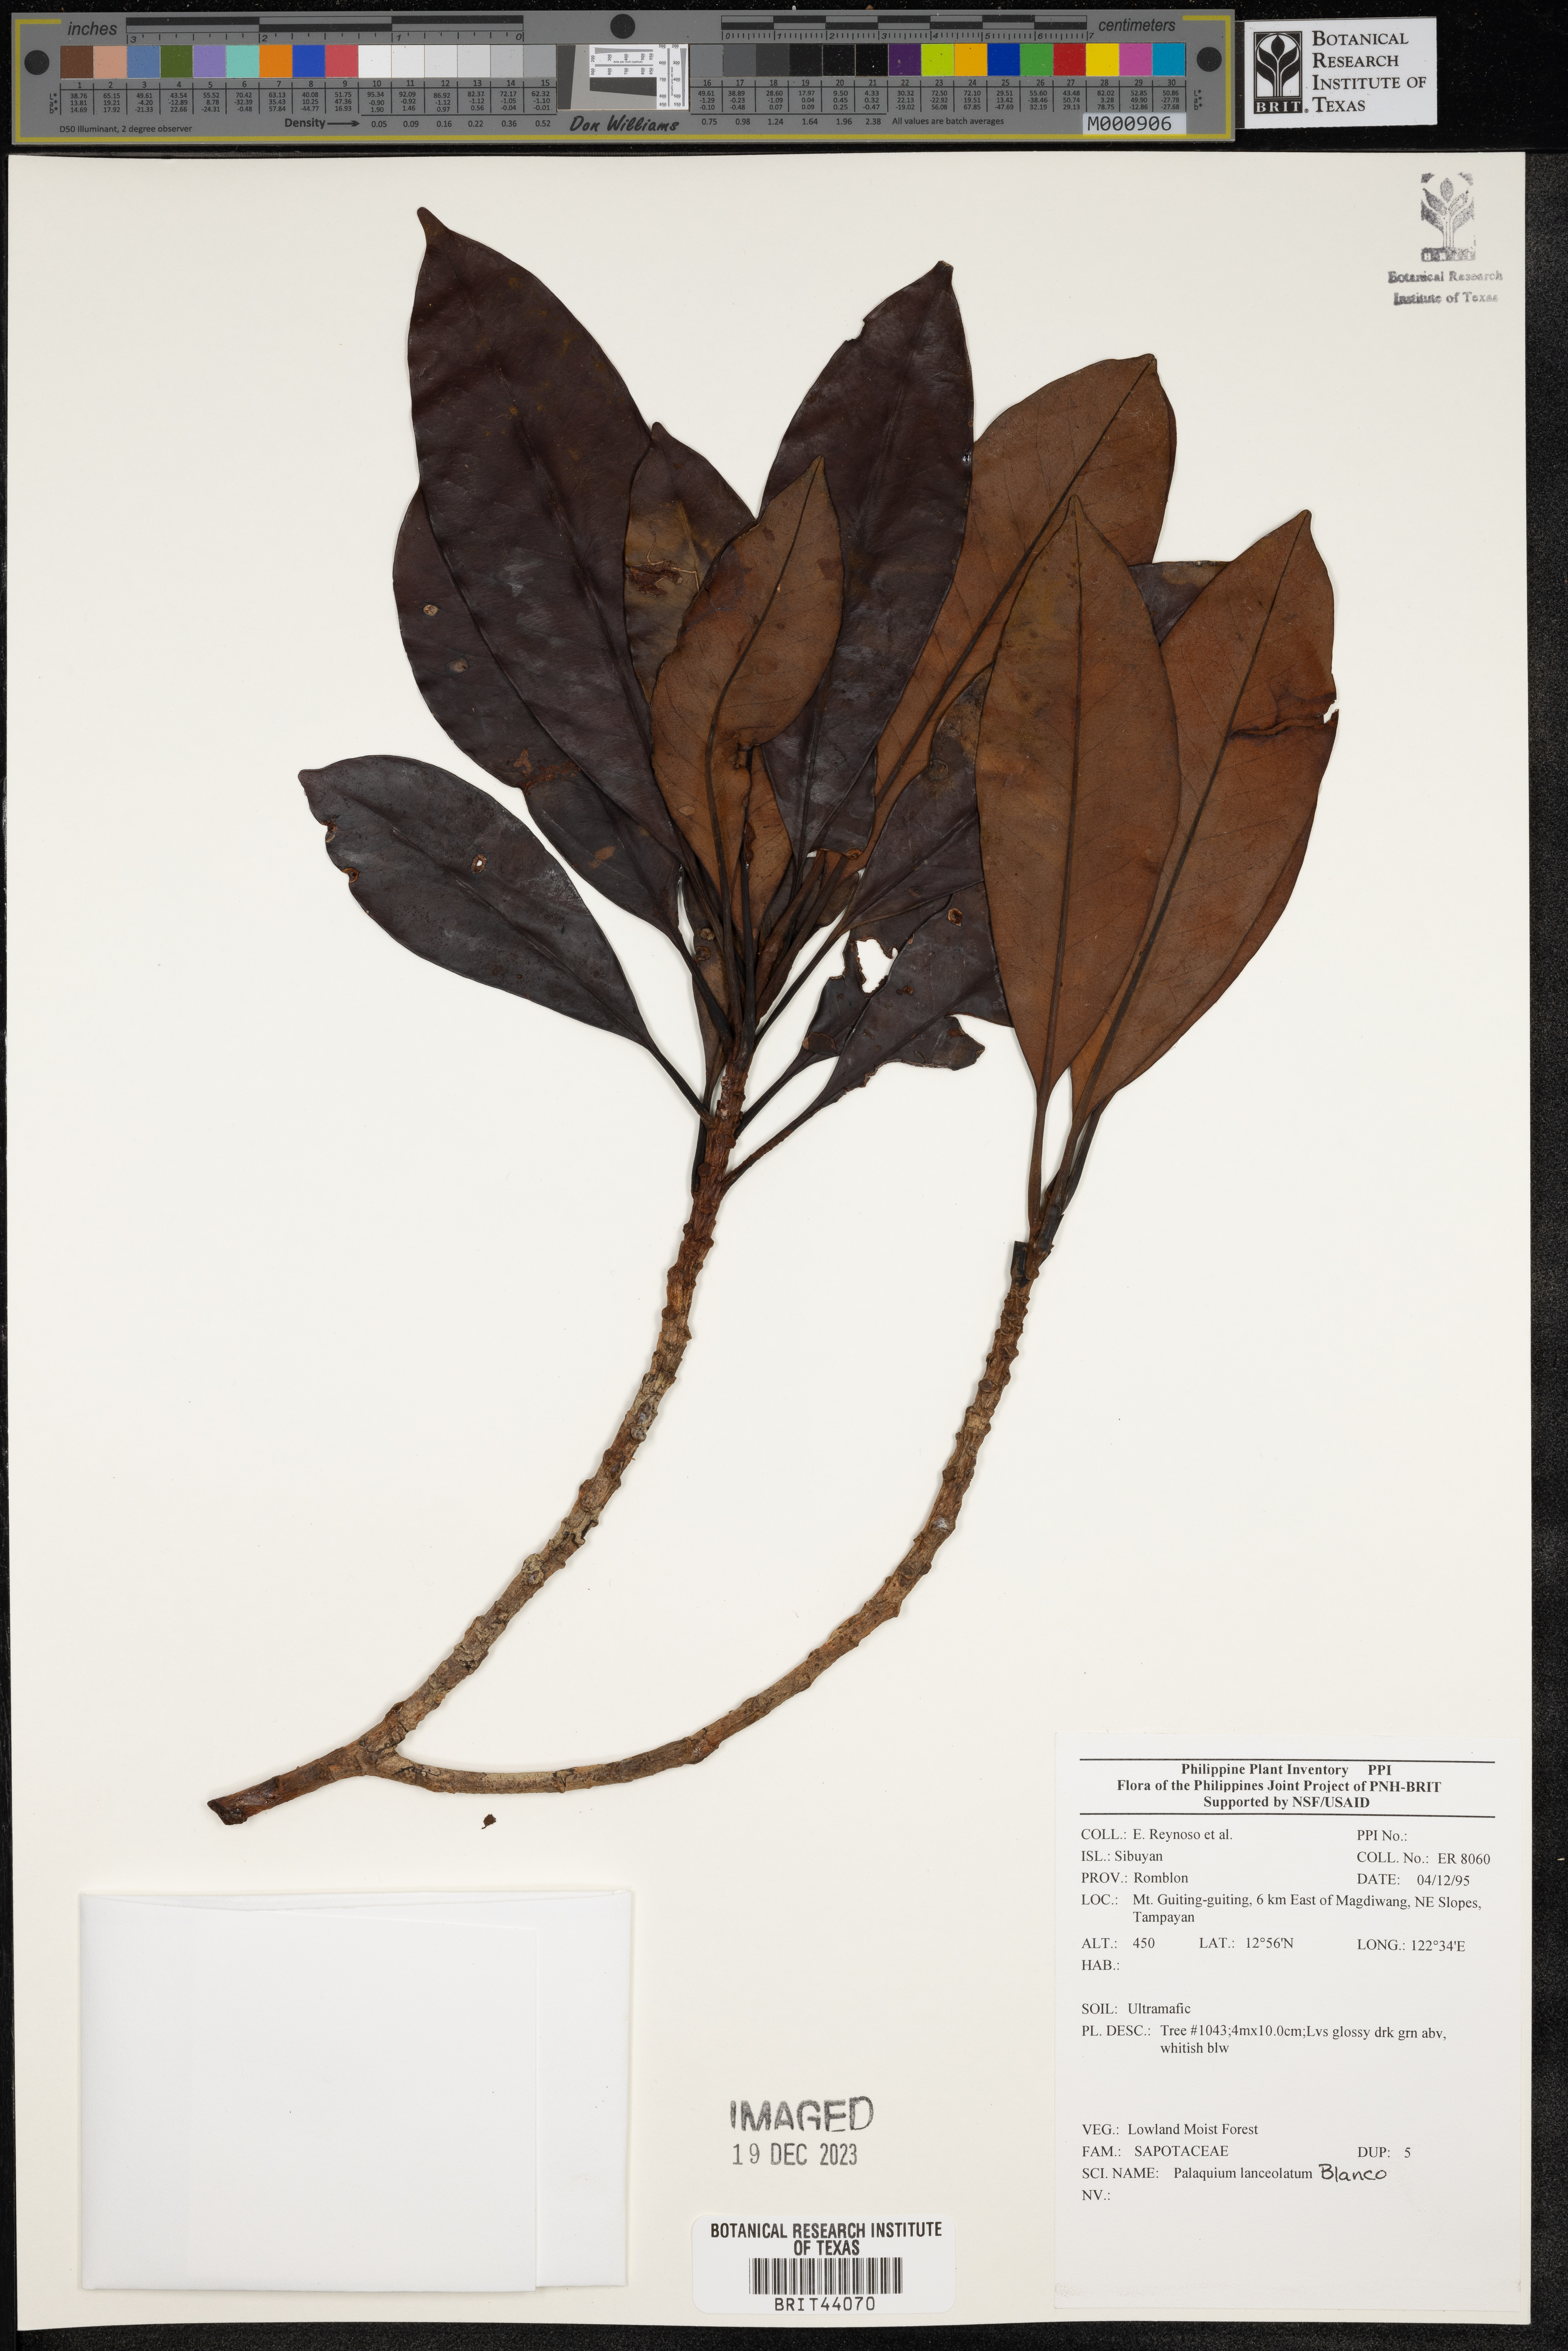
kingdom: Plantae
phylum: Tracheophyta
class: Magnoliopsida
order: Ericales
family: Sapotaceae
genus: Palaquium
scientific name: Palaquium lanceolatum
